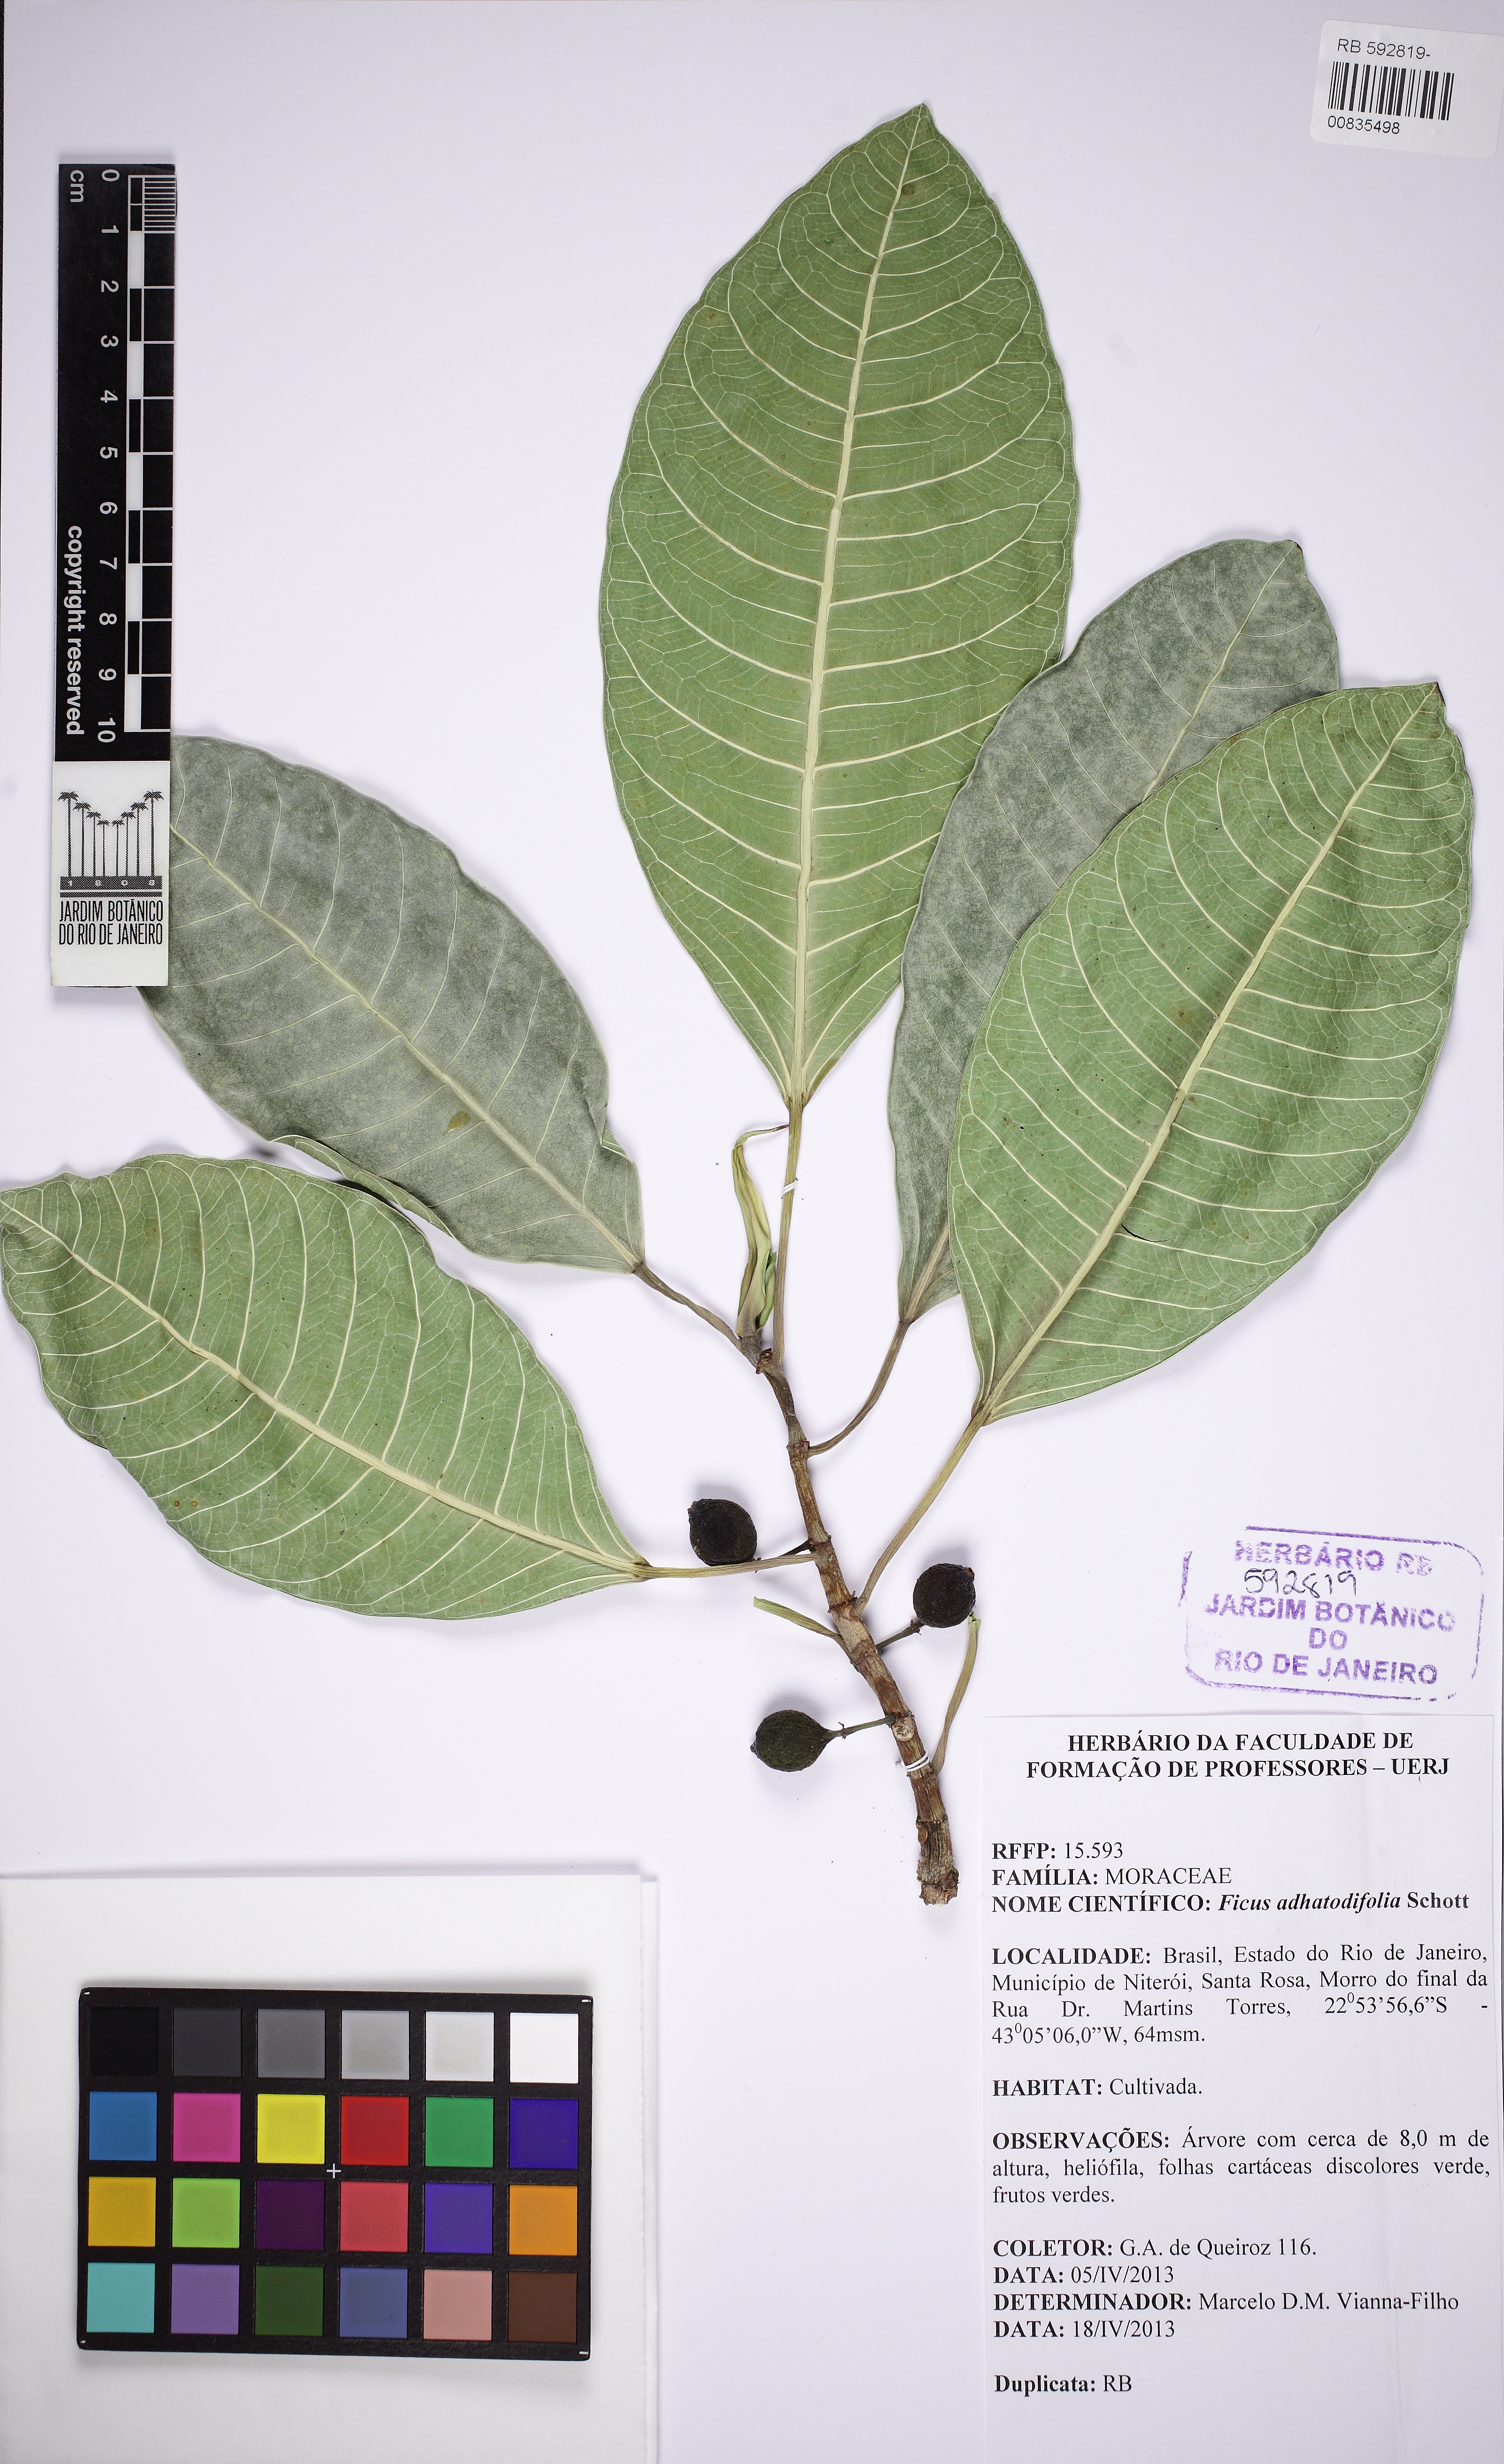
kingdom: Plantae
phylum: Tracheophyta
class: Magnoliopsida
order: Rosales
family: Moraceae
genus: Ficus
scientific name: Ficus adhatodifolia
